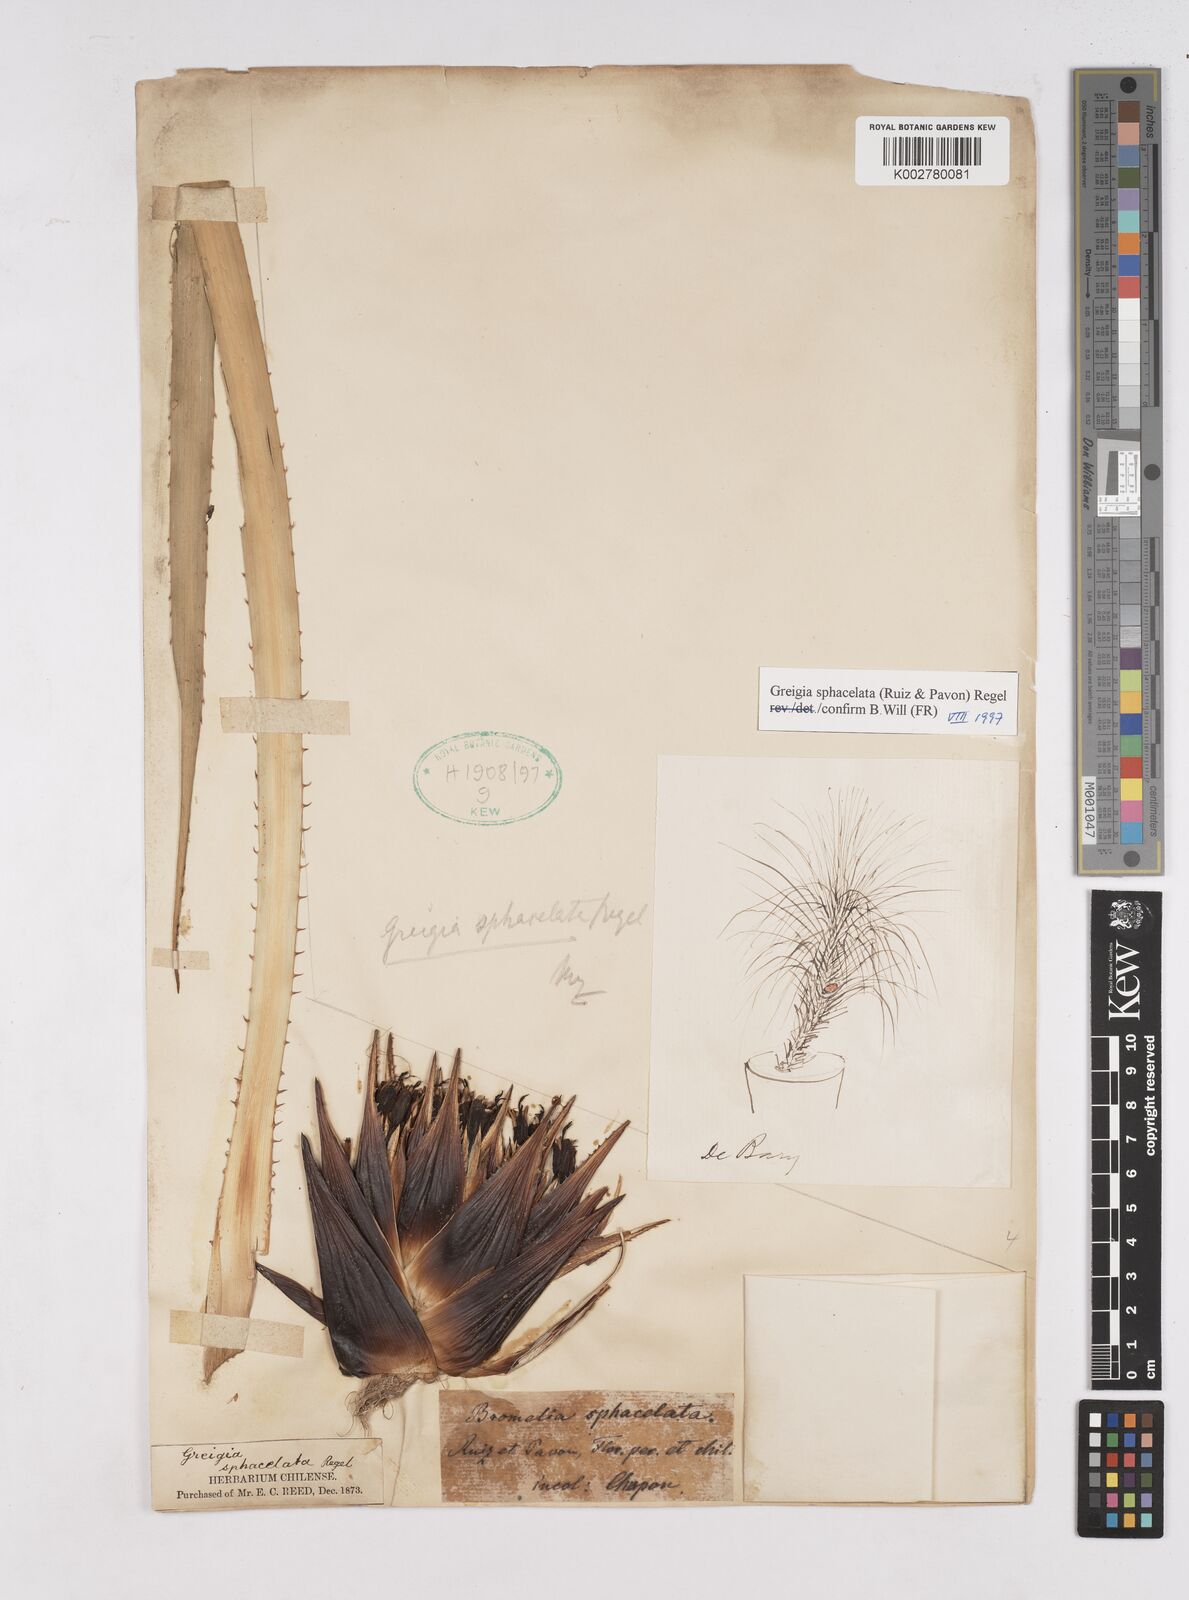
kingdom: Plantae
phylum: Tracheophyta
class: Liliopsida
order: Poales
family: Bromeliaceae
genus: Greigia
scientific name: Greigia sphacelata
